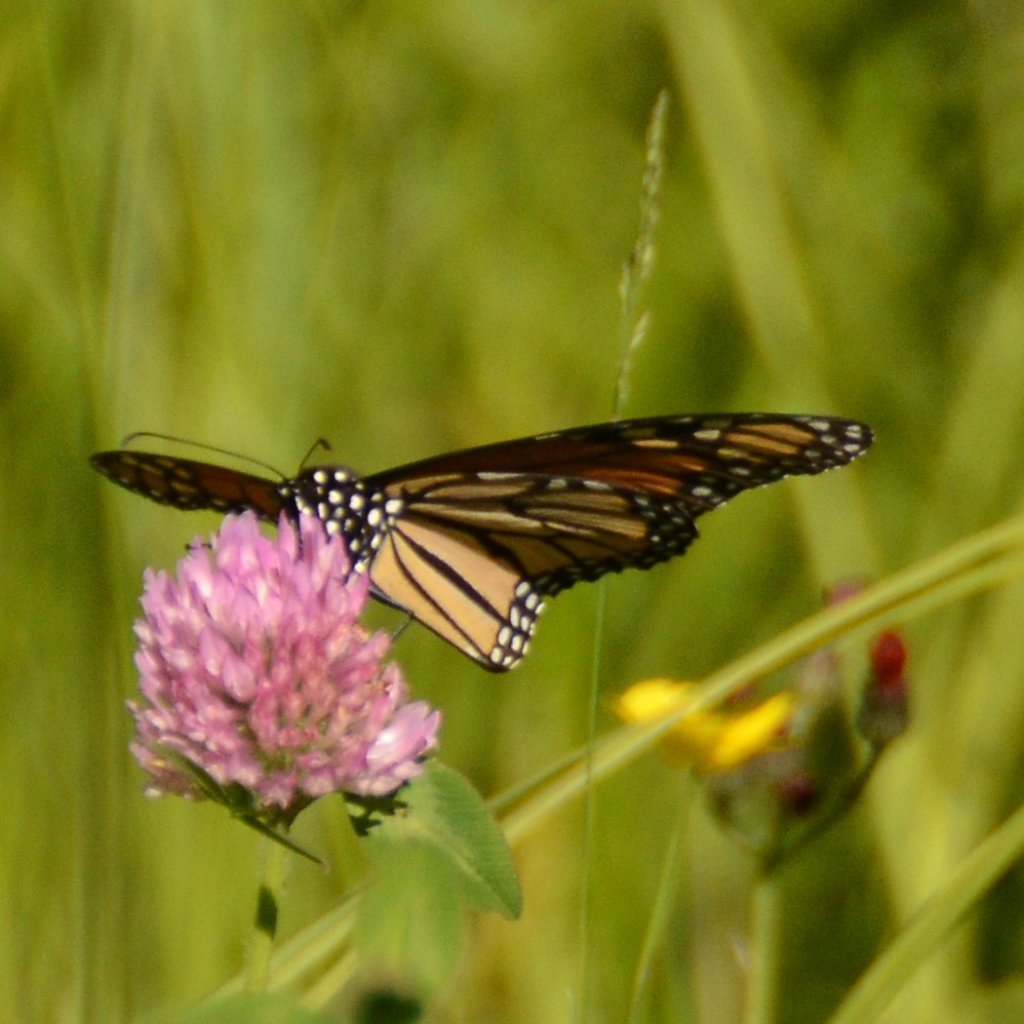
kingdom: Animalia
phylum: Arthropoda
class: Insecta
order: Lepidoptera
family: Nymphalidae
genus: Danaus
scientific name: Danaus plexippus
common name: Monarch
